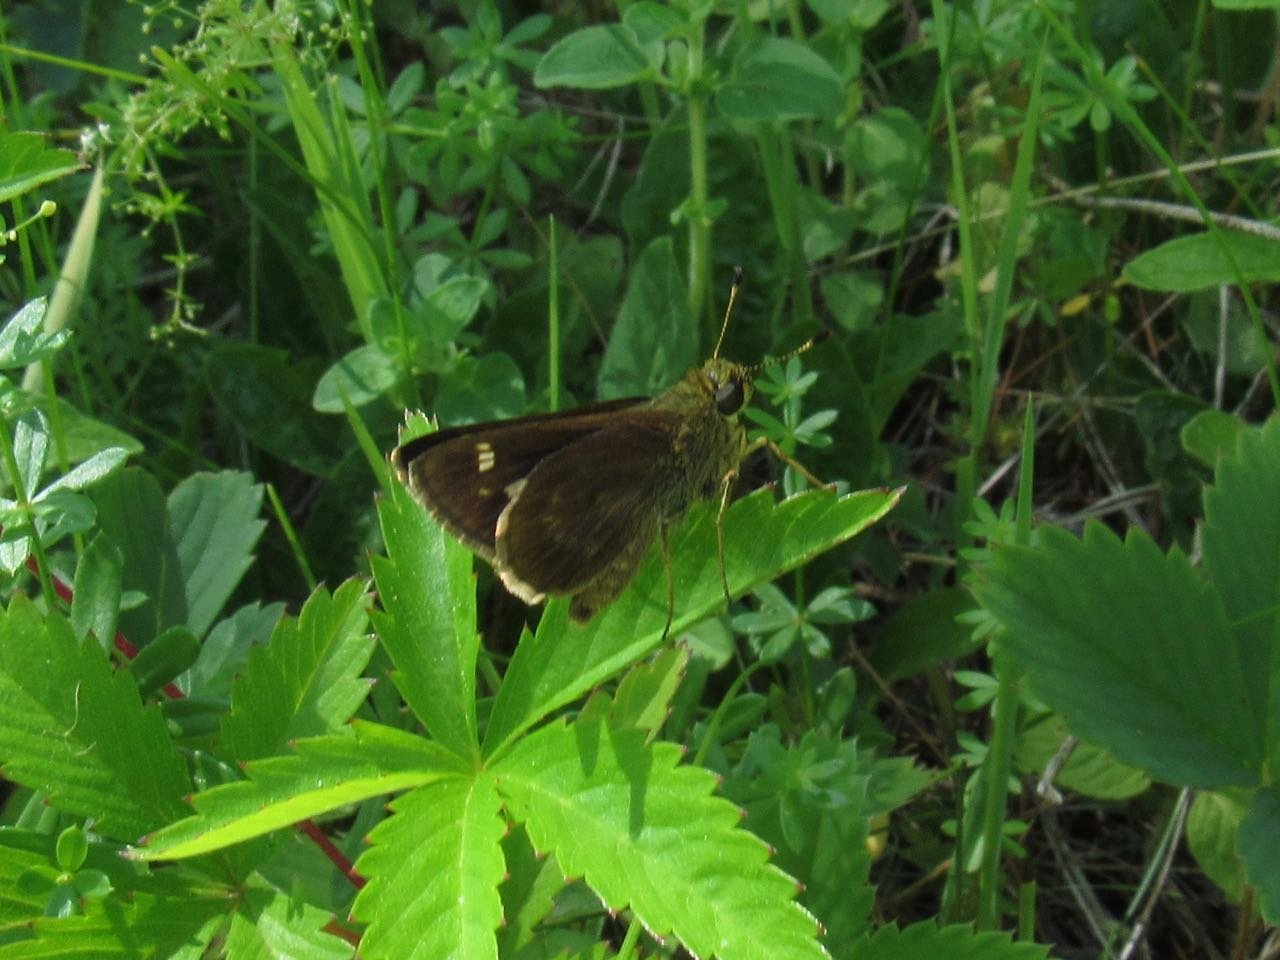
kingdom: Animalia
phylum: Arthropoda
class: Insecta
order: Lepidoptera
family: Hesperiidae
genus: Vernia
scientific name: Vernia verna
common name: Little Glassywing
